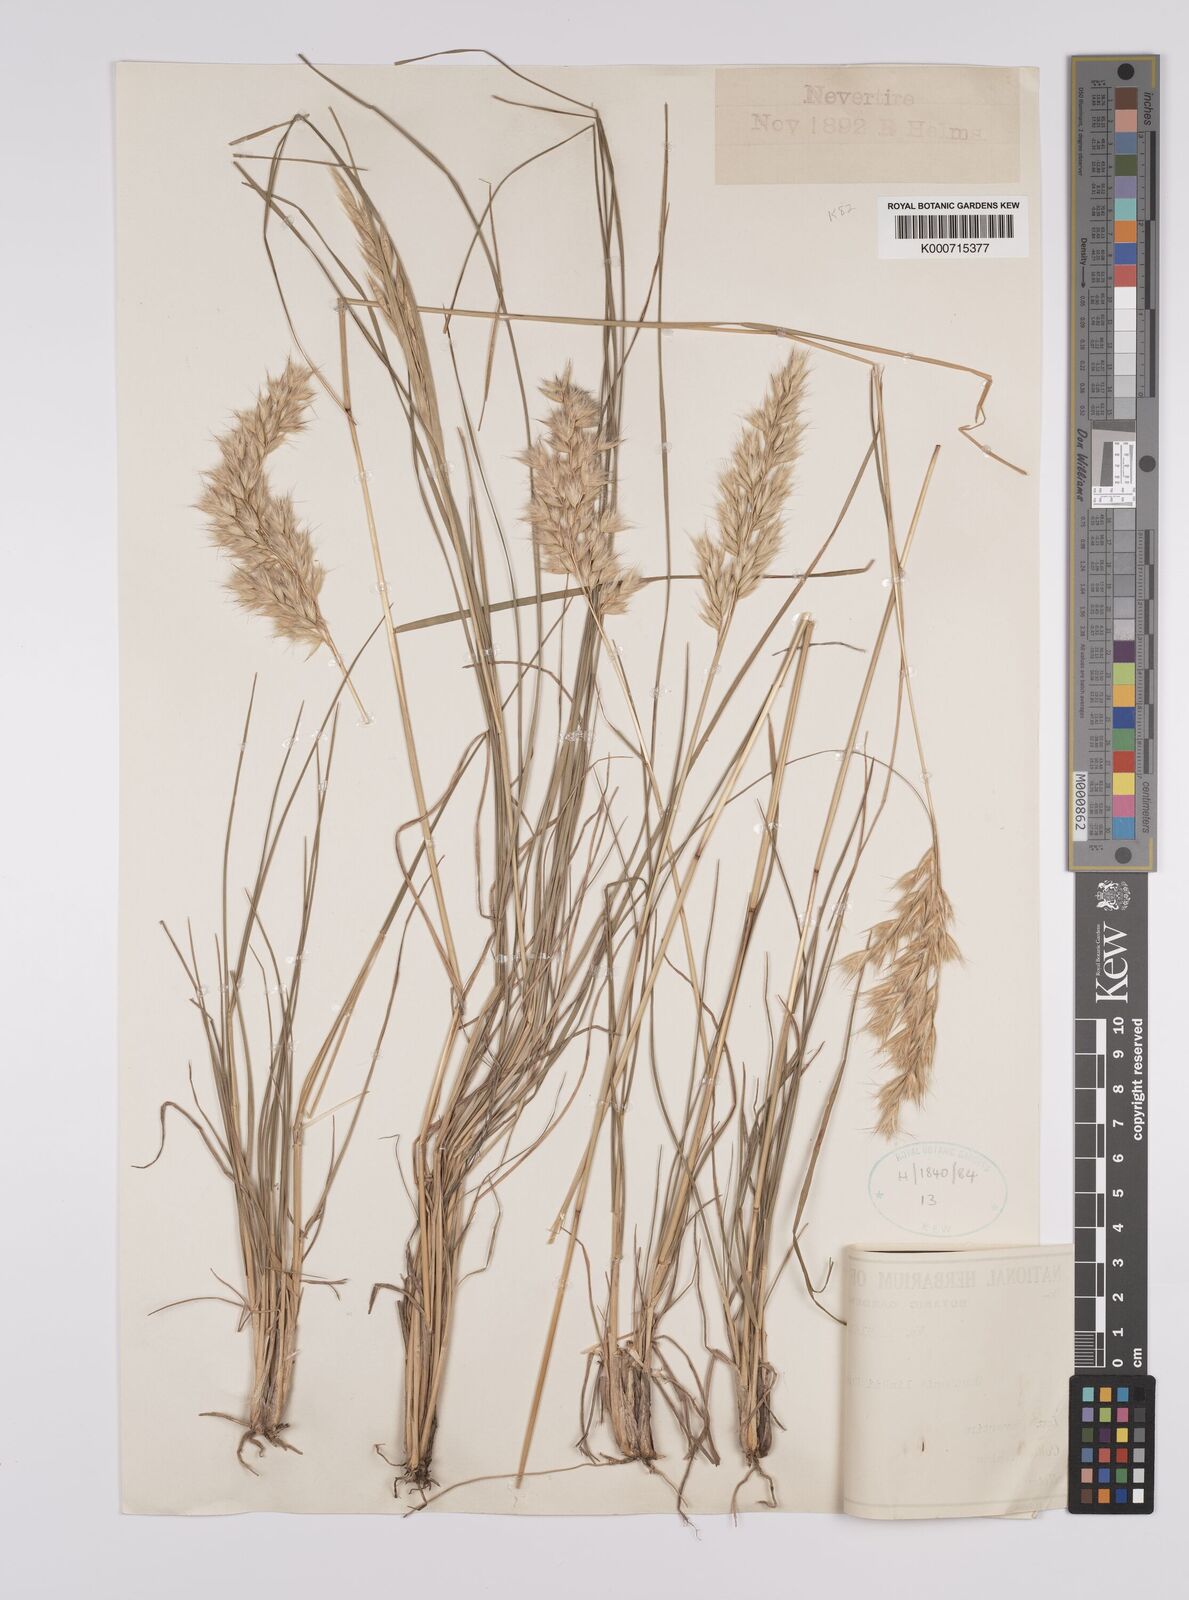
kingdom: Plantae
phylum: Tracheophyta
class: Liliopsida
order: Poales
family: Poaceae
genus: Rytidosperma
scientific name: Rytidosperma bipartitum
